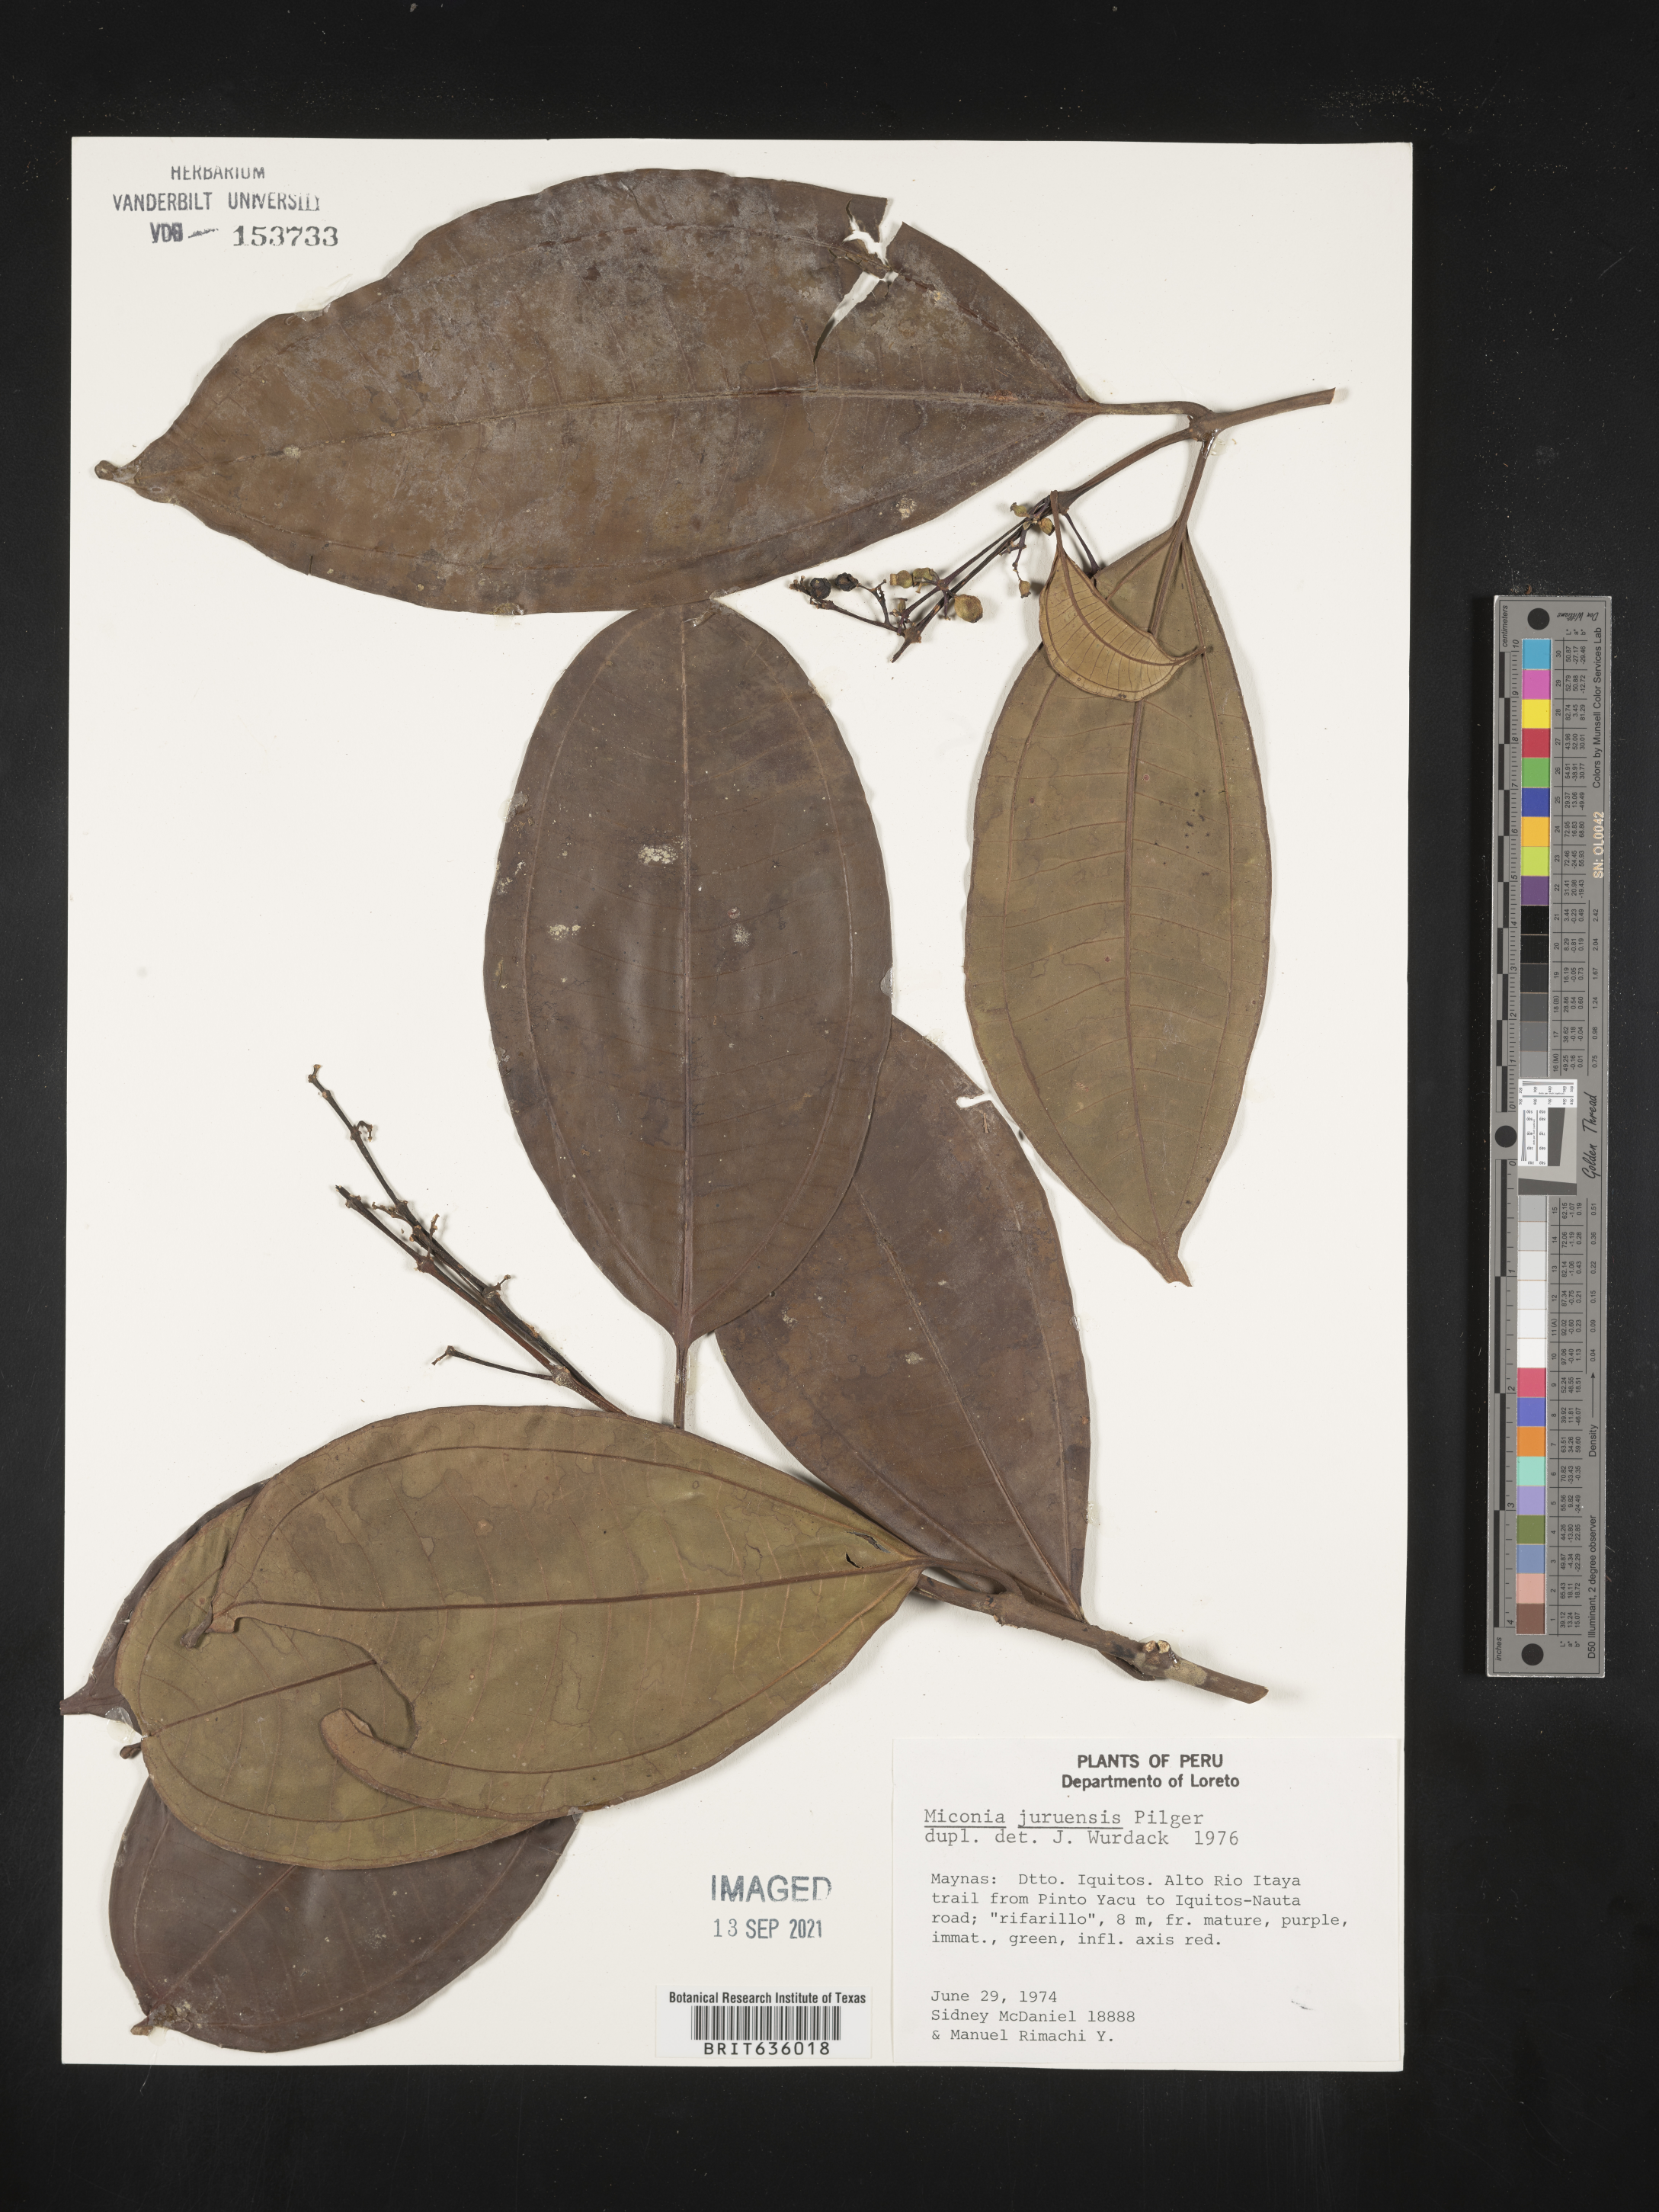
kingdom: Plantae
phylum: Tracheophyta
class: Magnoliopsida
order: Myrtales
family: Melastomataceae
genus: Miconia
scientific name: Miconia
